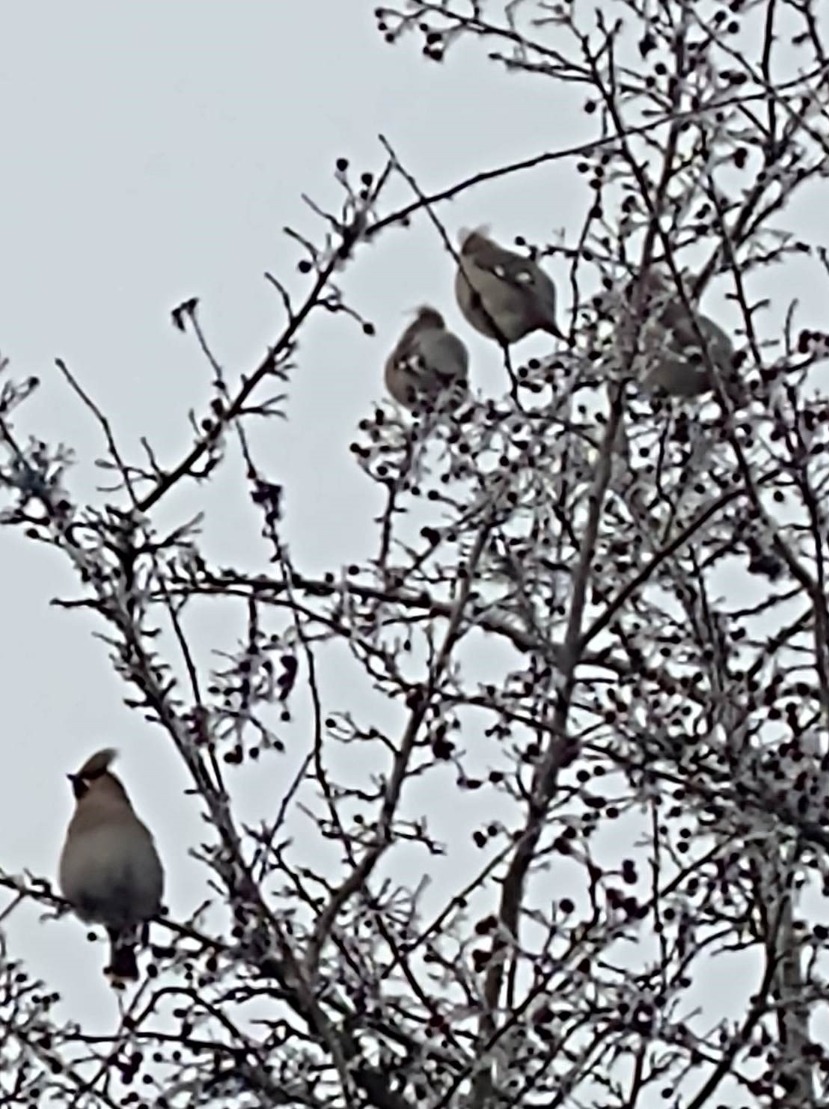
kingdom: Animalia
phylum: Chordata
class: Aves
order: Passeriformes
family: Bombycillidae
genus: Bombycilla
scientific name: Bombycilla garrulus
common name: Silkehale
